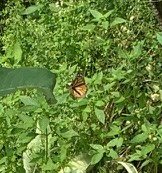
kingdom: Animalia
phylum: Arthropoda
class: Insecta
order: Lepidoptera
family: Nymphalidae
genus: Danaus
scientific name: Danaus plexippus
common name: Monarch
